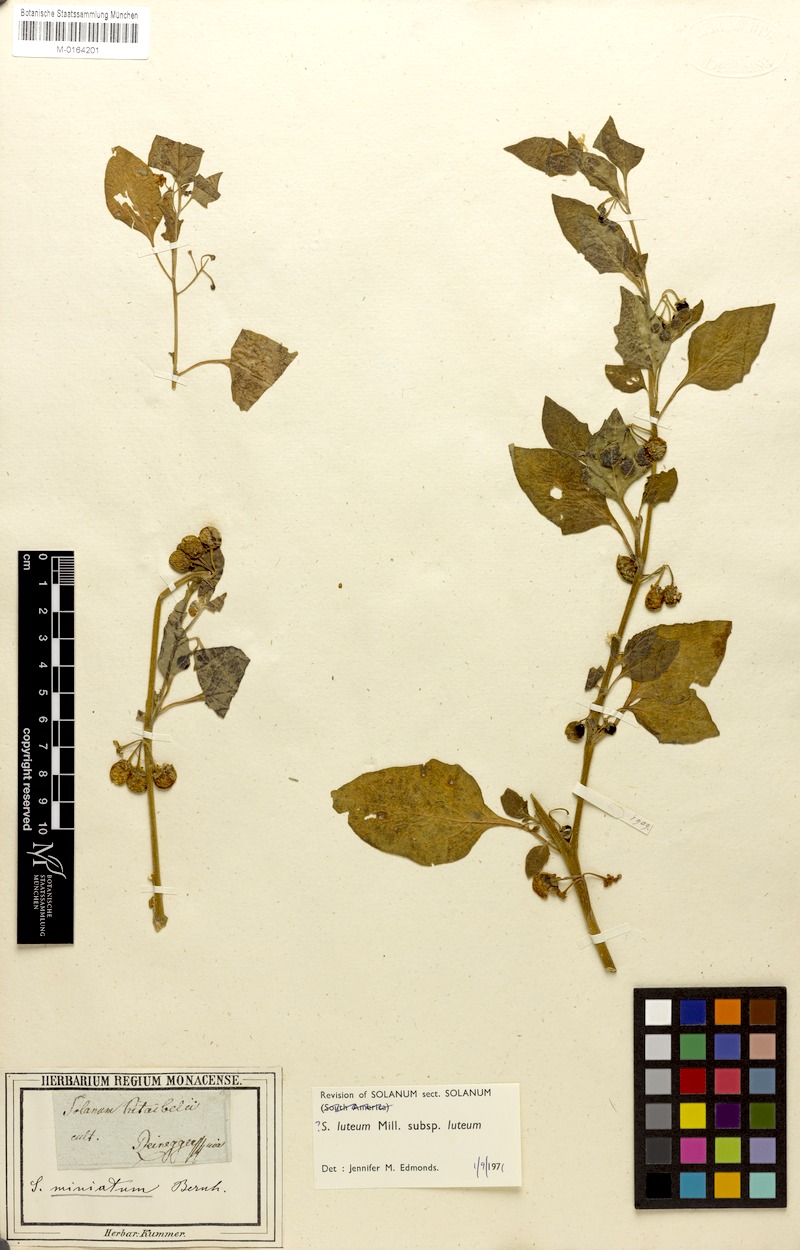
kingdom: Plantae
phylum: Tracheophyta
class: Magnoliopsida
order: Solanales
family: Solanaceae
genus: Solanum
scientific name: Solanum villosum
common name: Red nightshade
